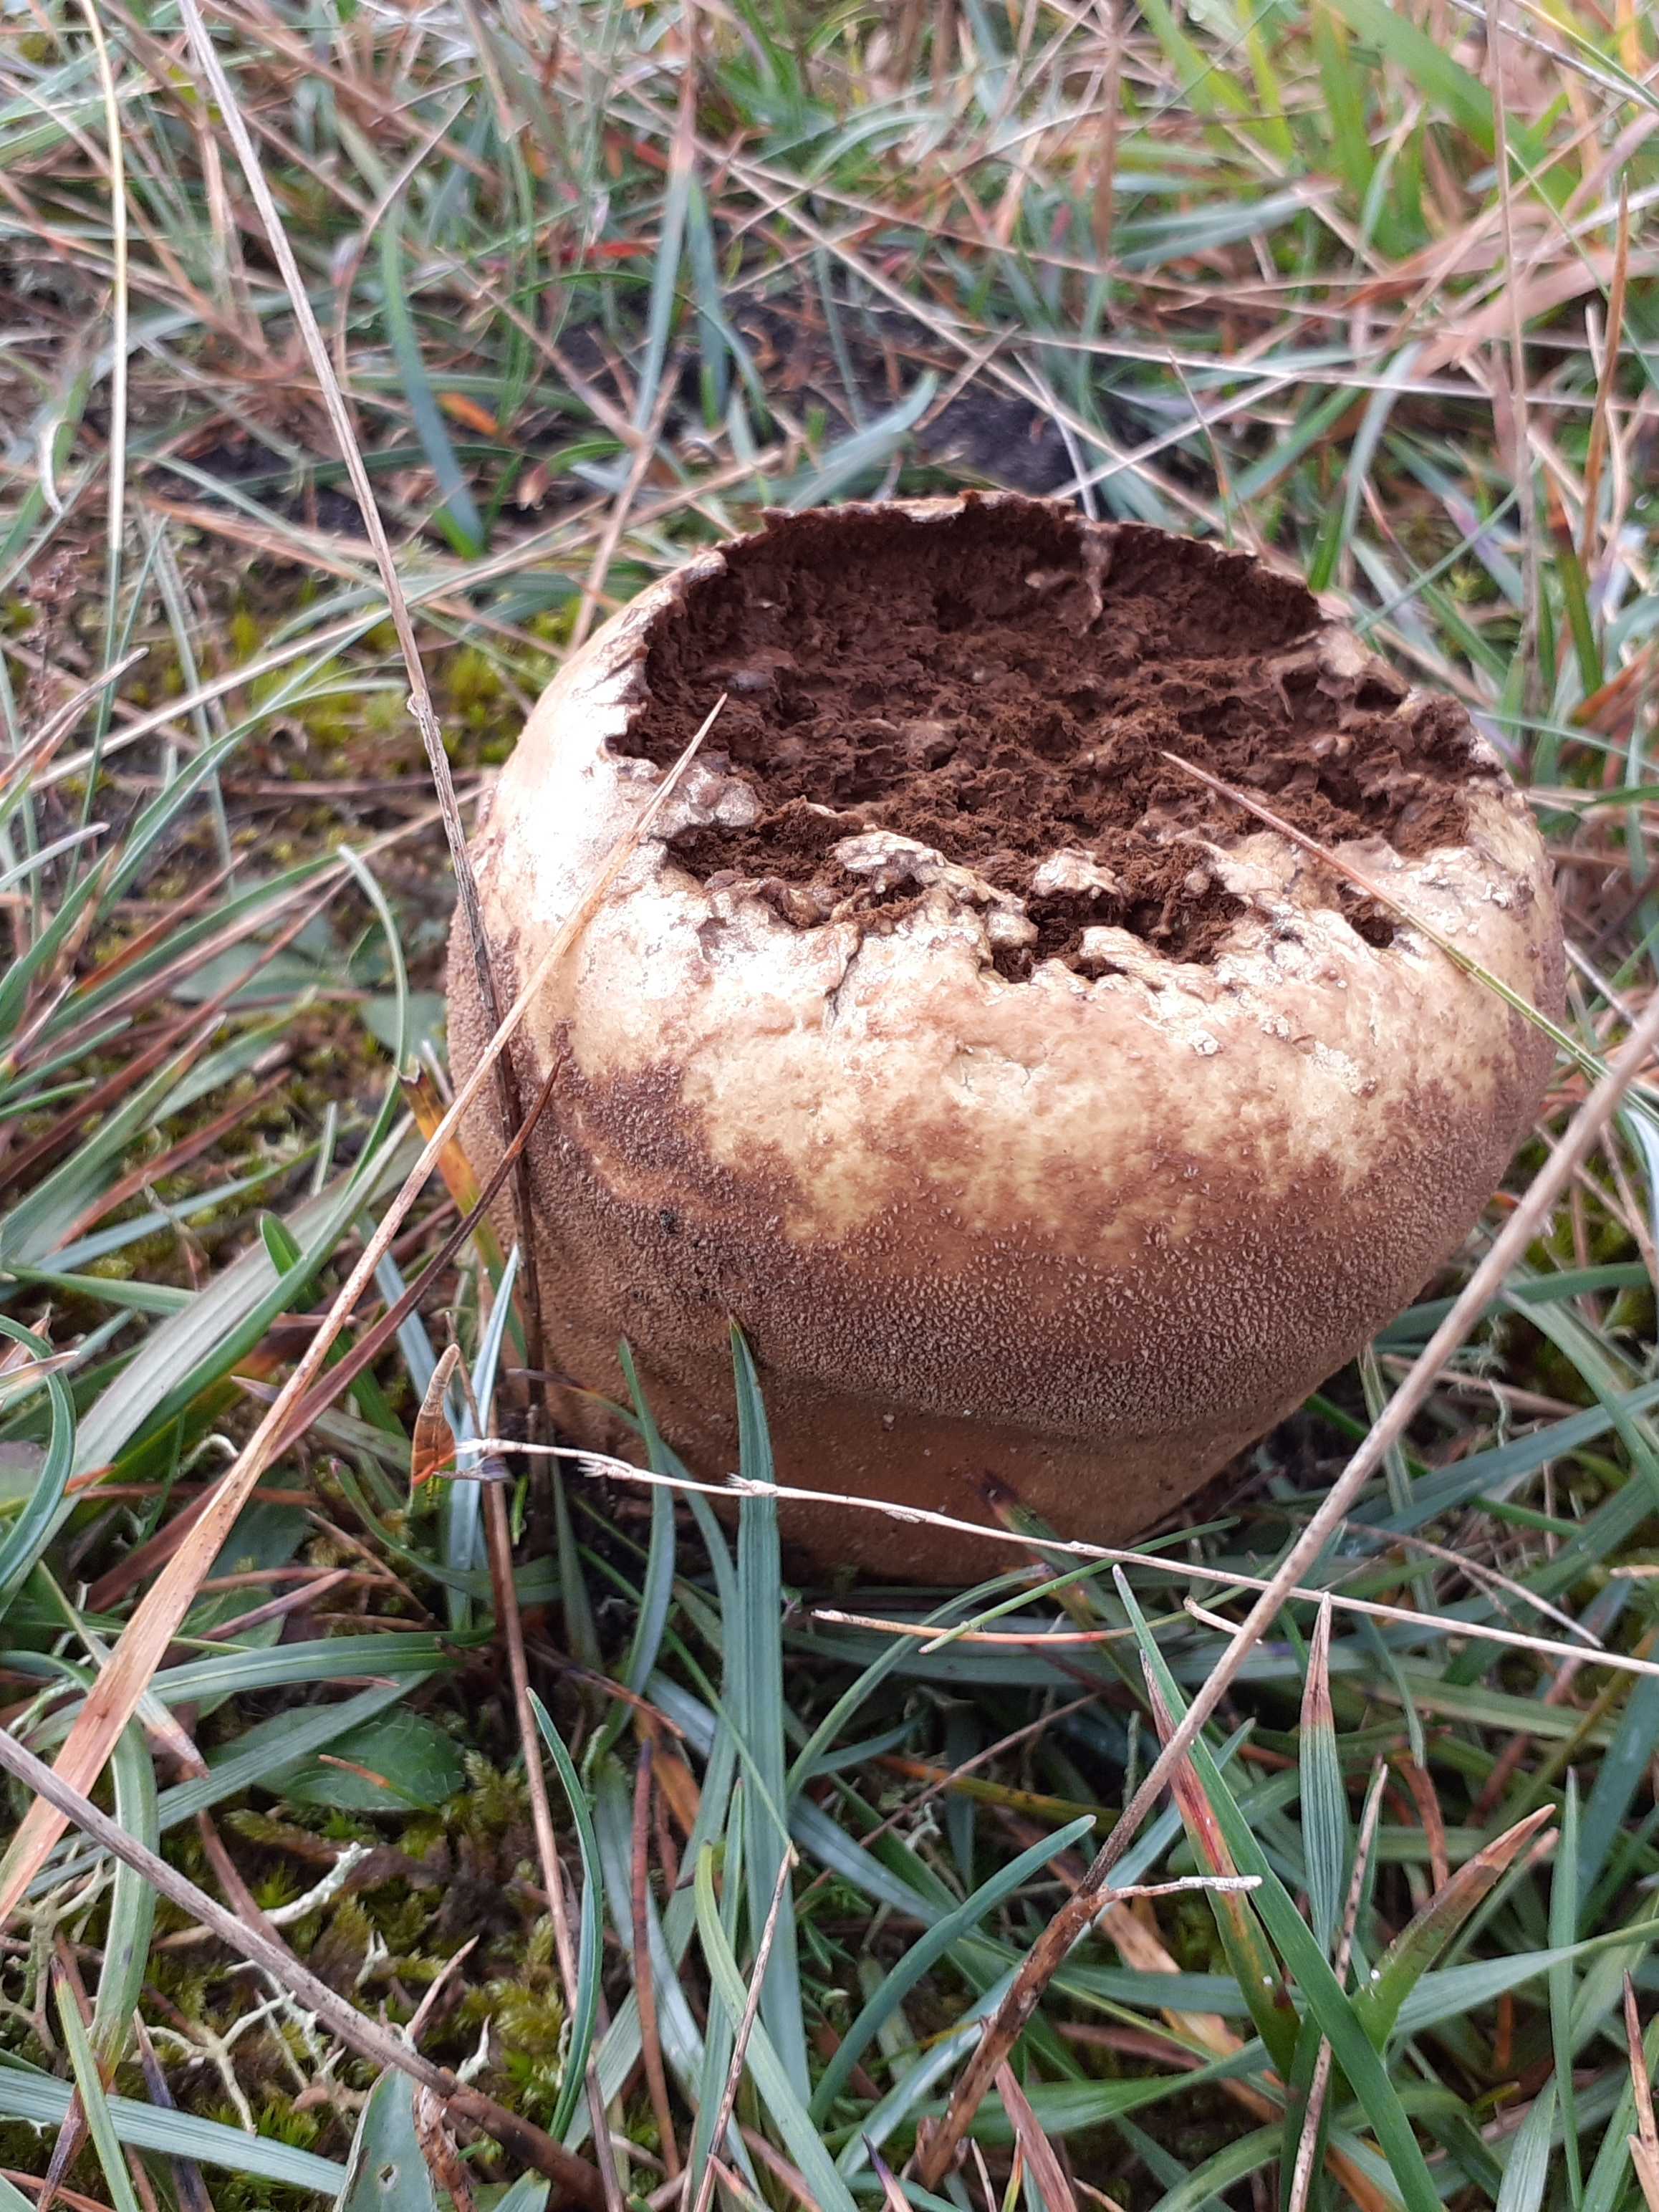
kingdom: Fungi
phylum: Basidiomycota
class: Agaricomycetes
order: Agaricales
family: Lycoperdaceae
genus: Bovistella
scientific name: Bovistella utriformis
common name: skællet støvbold
